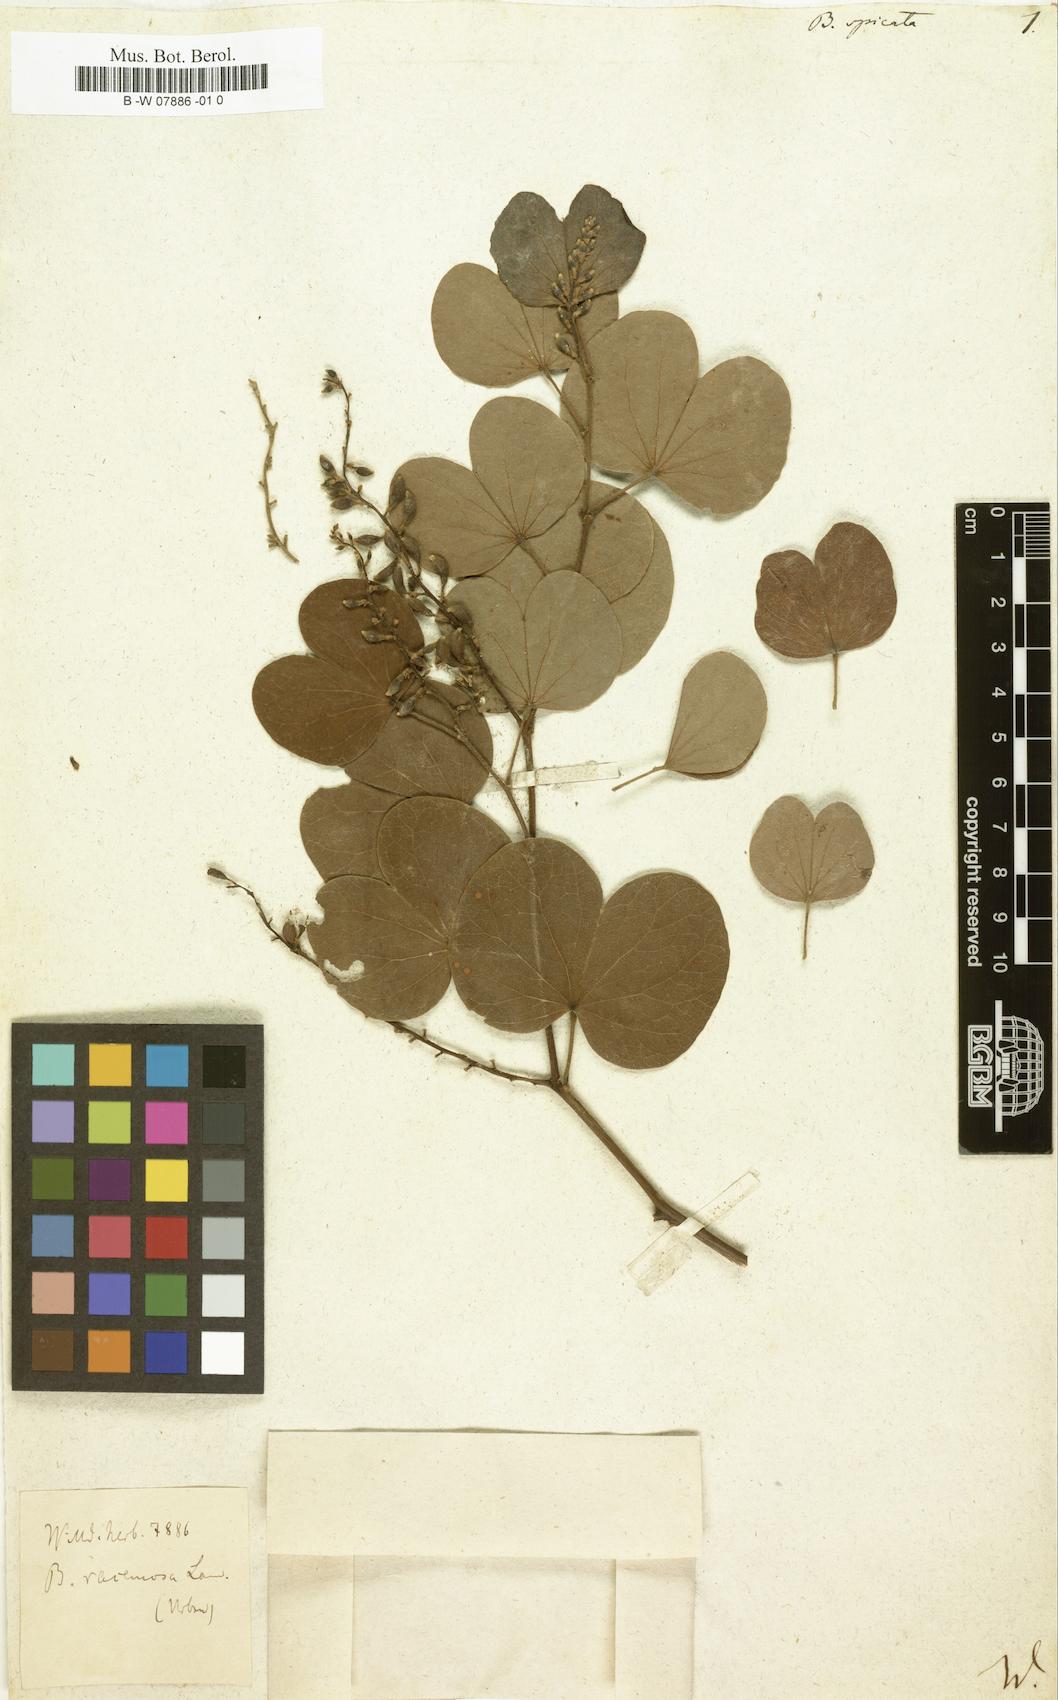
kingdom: Plantae
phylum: Tracheophyta
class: Magnoliopsida
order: Fabales
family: Fabaceae
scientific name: Fabaceae
